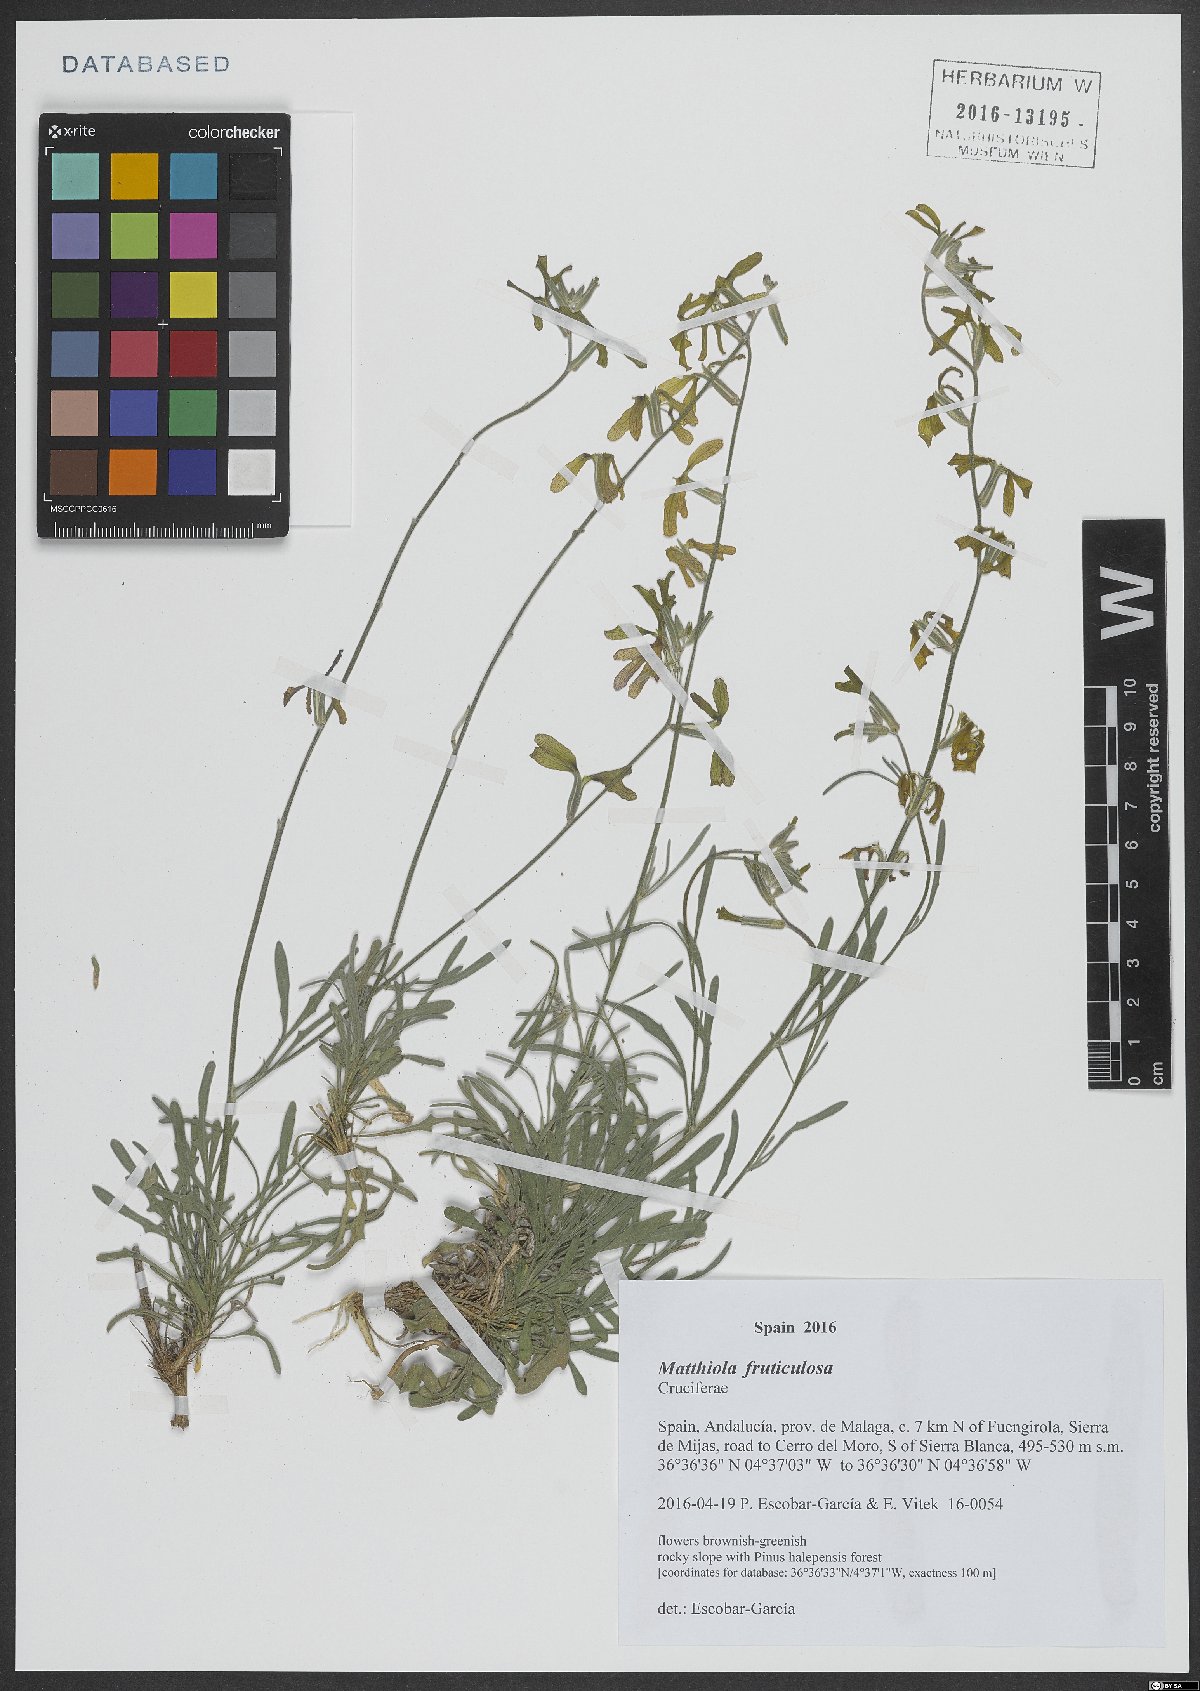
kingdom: Plantae
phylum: Tracheophyta
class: Magnoliopsida
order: Brassicales
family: Brassicaceae
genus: Matthiola
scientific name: Matthiola fruticulosa
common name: Sad stock
